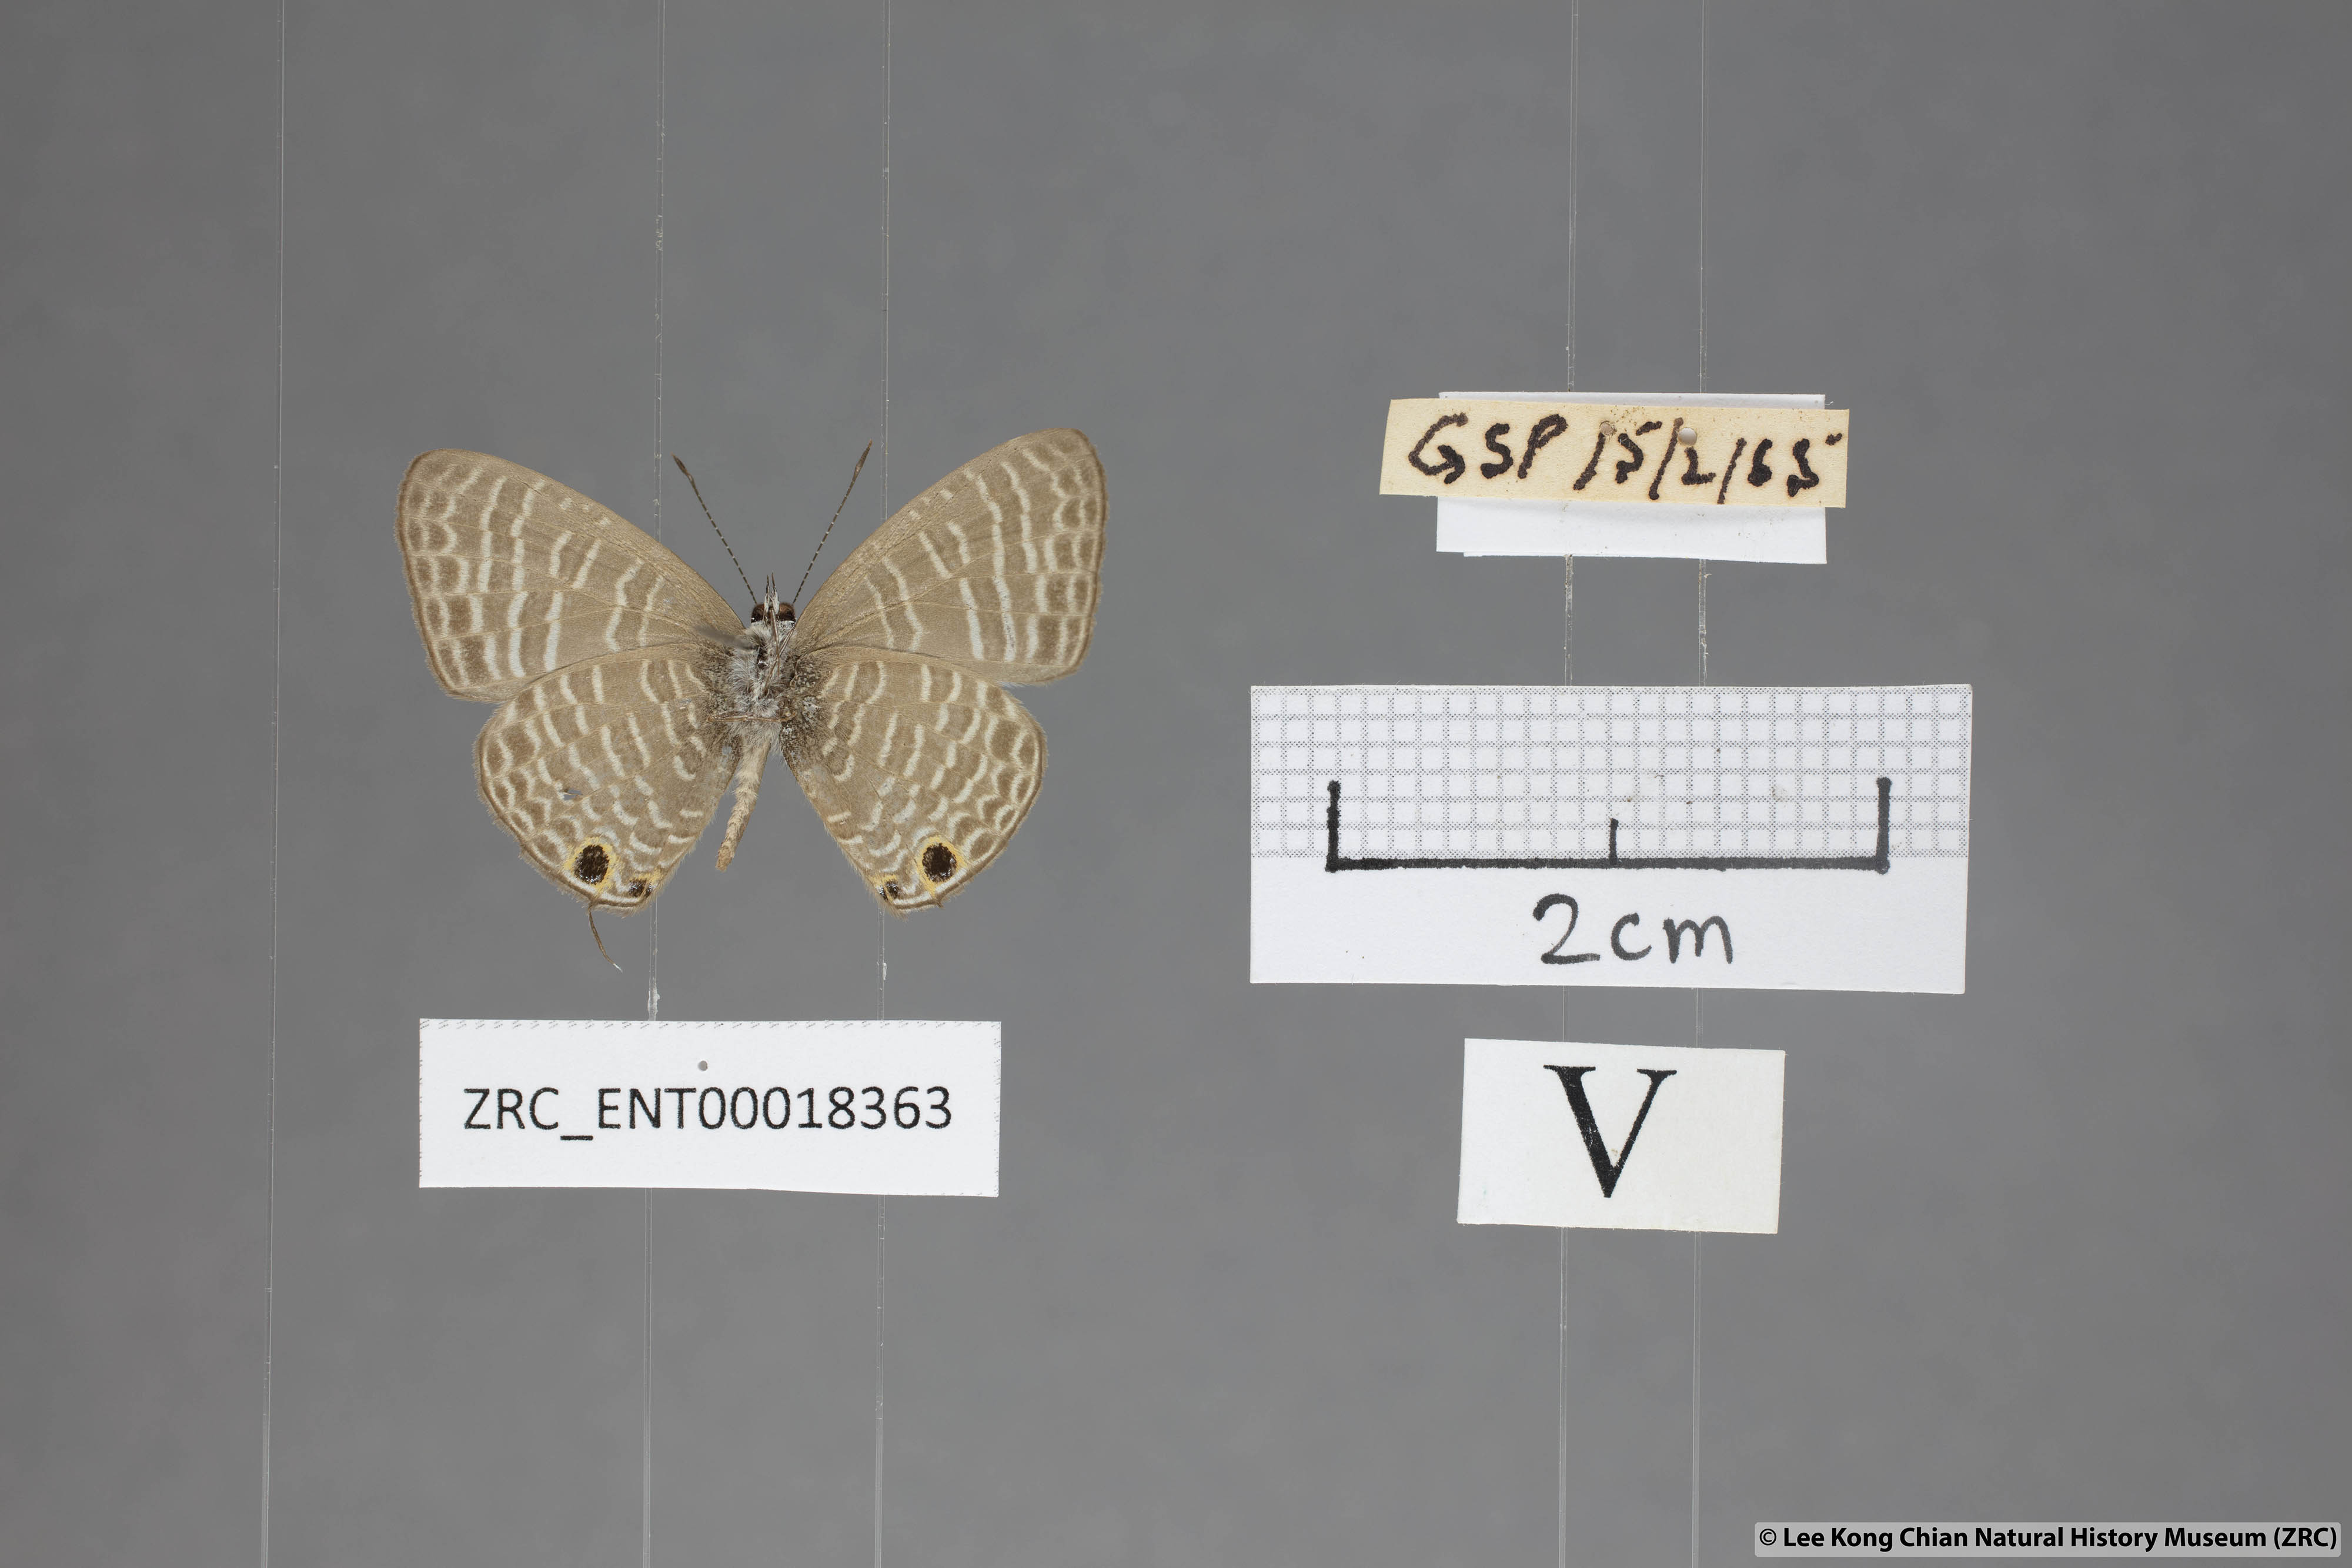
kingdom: Animalia
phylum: Arthropoda
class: Insecta
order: Lepidoptera
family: Lycaenidae
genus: Nacaduba
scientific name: Nacaduba kurava
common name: Transparent 6-line blue
